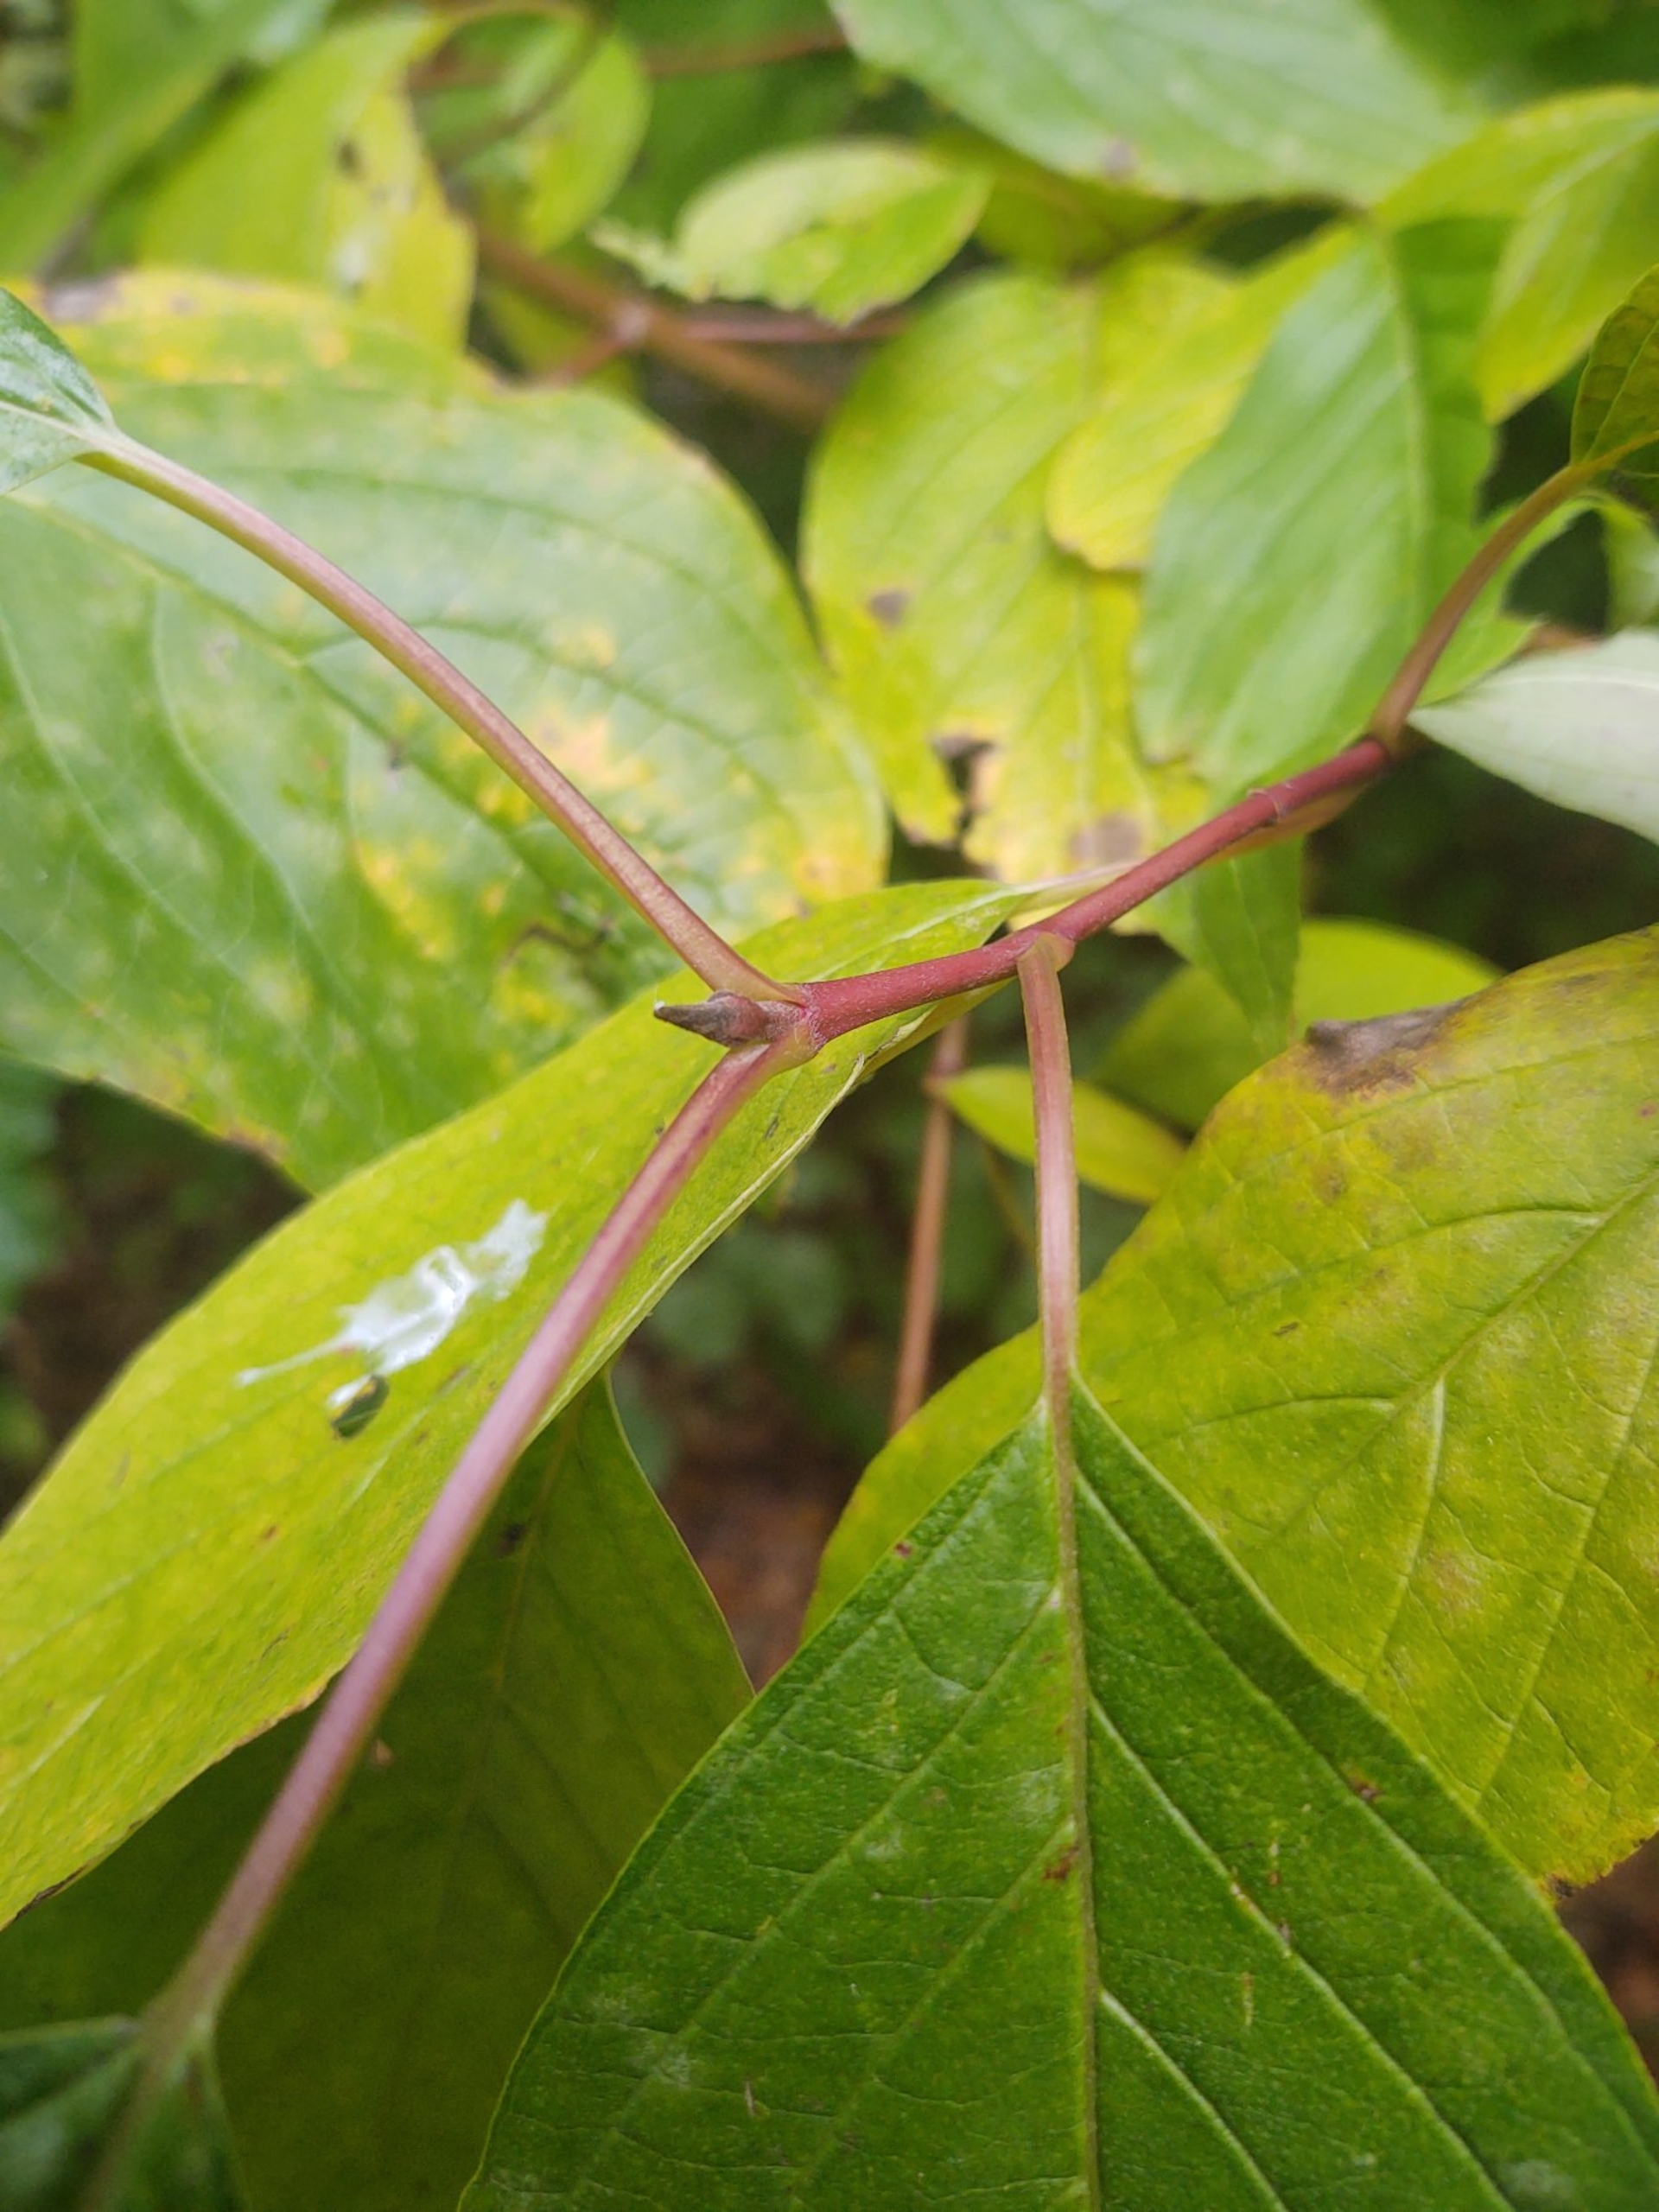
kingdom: Plantae
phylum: Tracheophyta
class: Magnoliopsida
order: Cornales
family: Cornaceae
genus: Cornus
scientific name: Cornus sericea
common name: Krybende kornel
